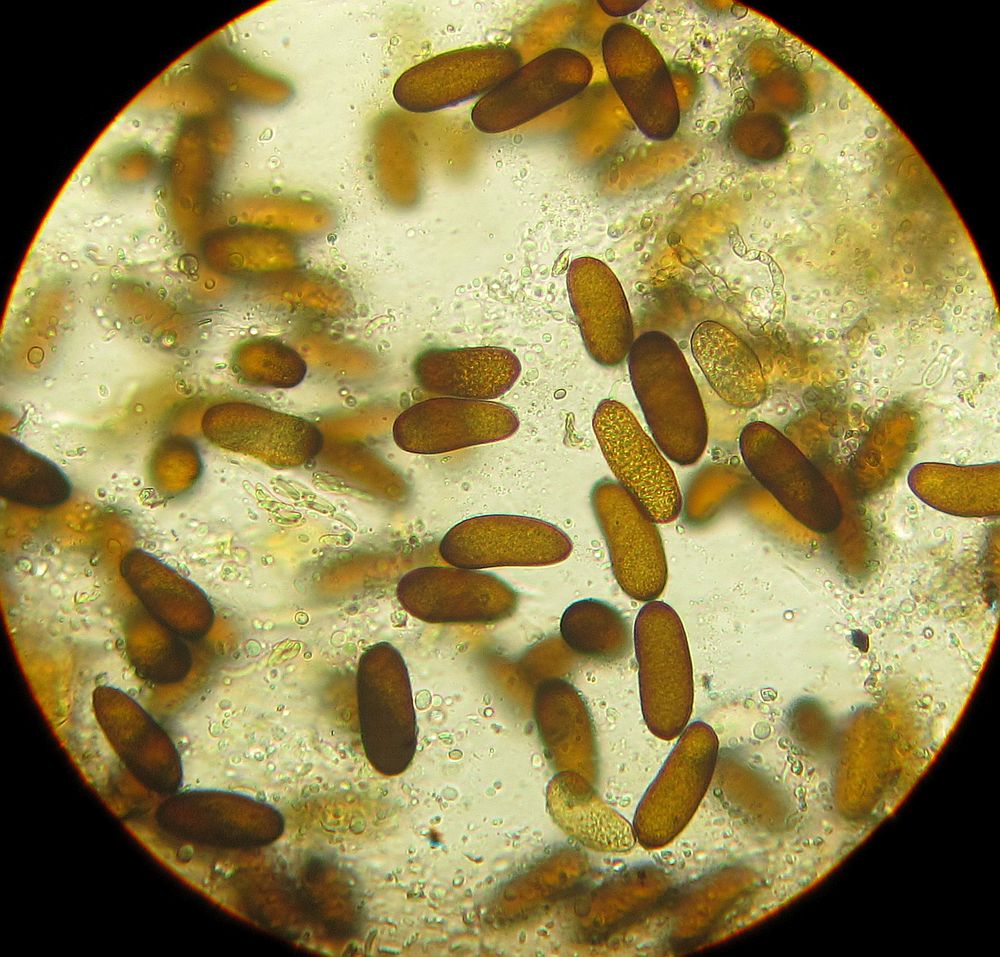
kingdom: Fungi
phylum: Ascomycota
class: Dothideomycetes
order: Botryosphaeriales
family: Botryosphaeriaceae
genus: Sphaeropsis
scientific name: Sphaeropsis sapinea
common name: Sphaeropsis blight
